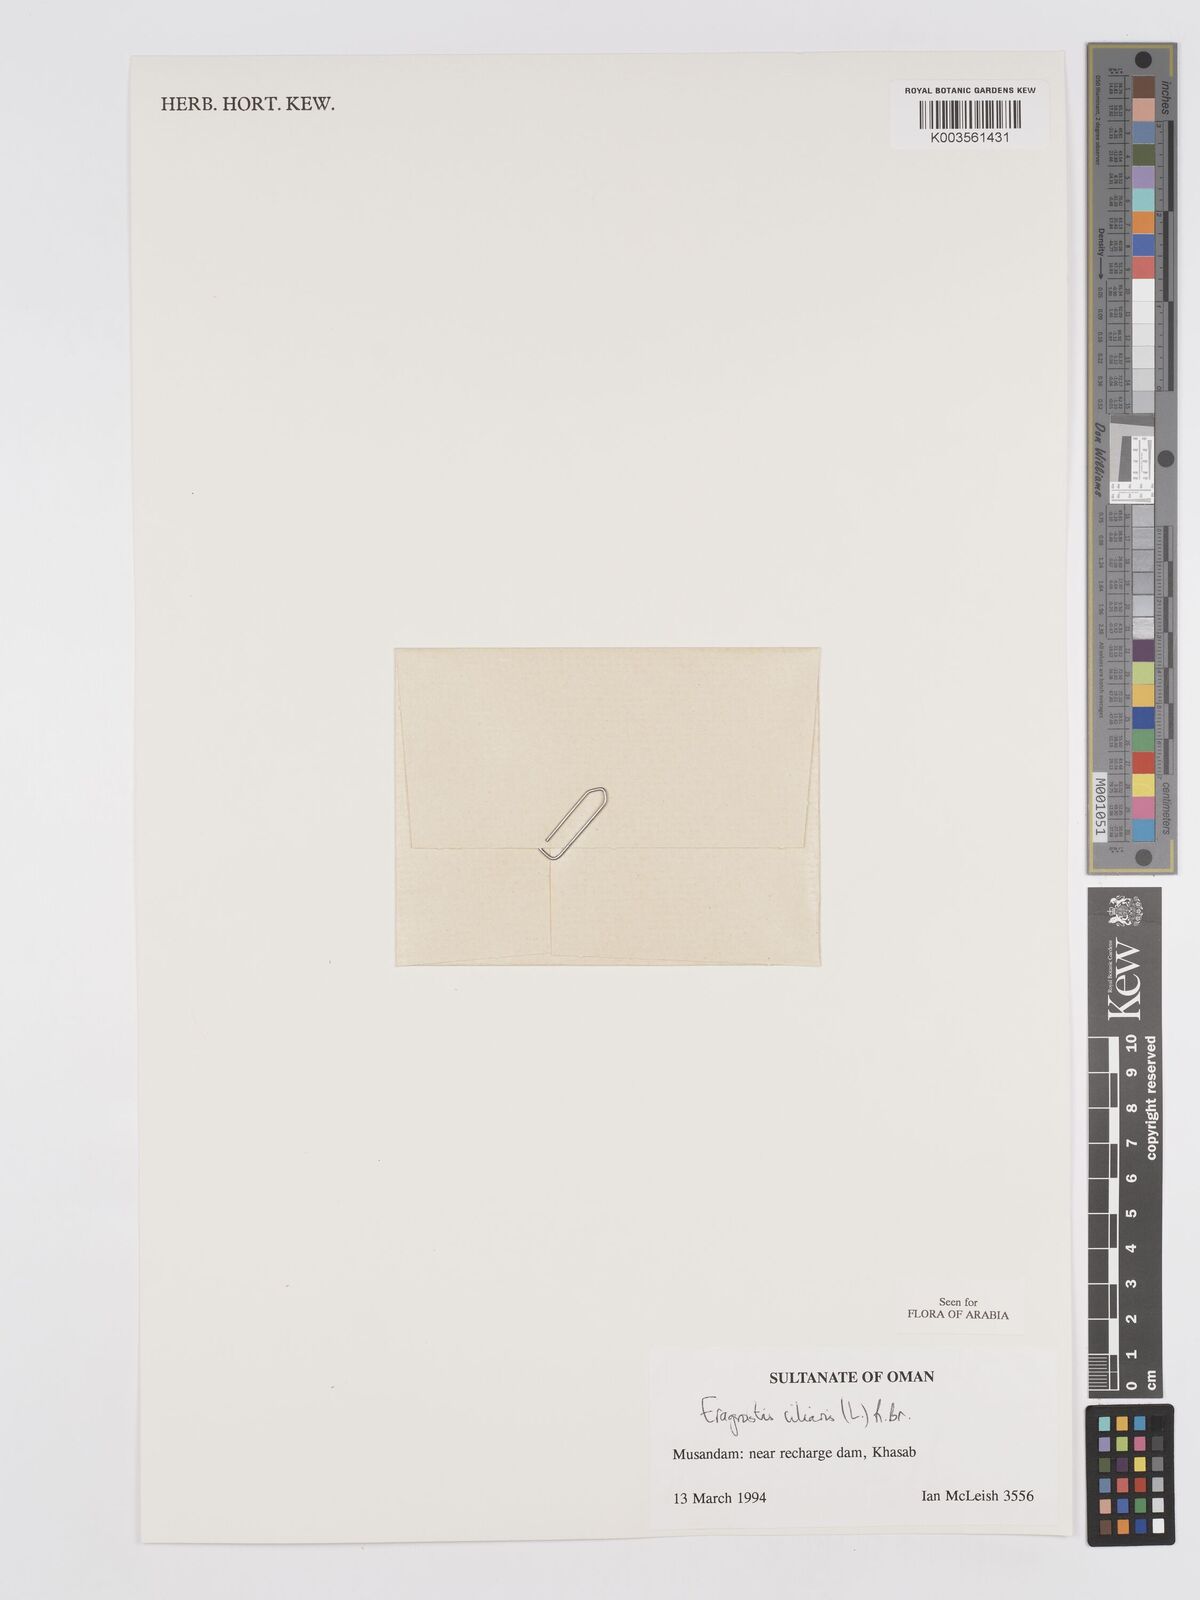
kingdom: Plantae
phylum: Tracheophyta
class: Liliopsida
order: Poales
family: Poaceae
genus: Eragrostis
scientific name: Eragrostis ciliaris
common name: Gophertail lovegrass
